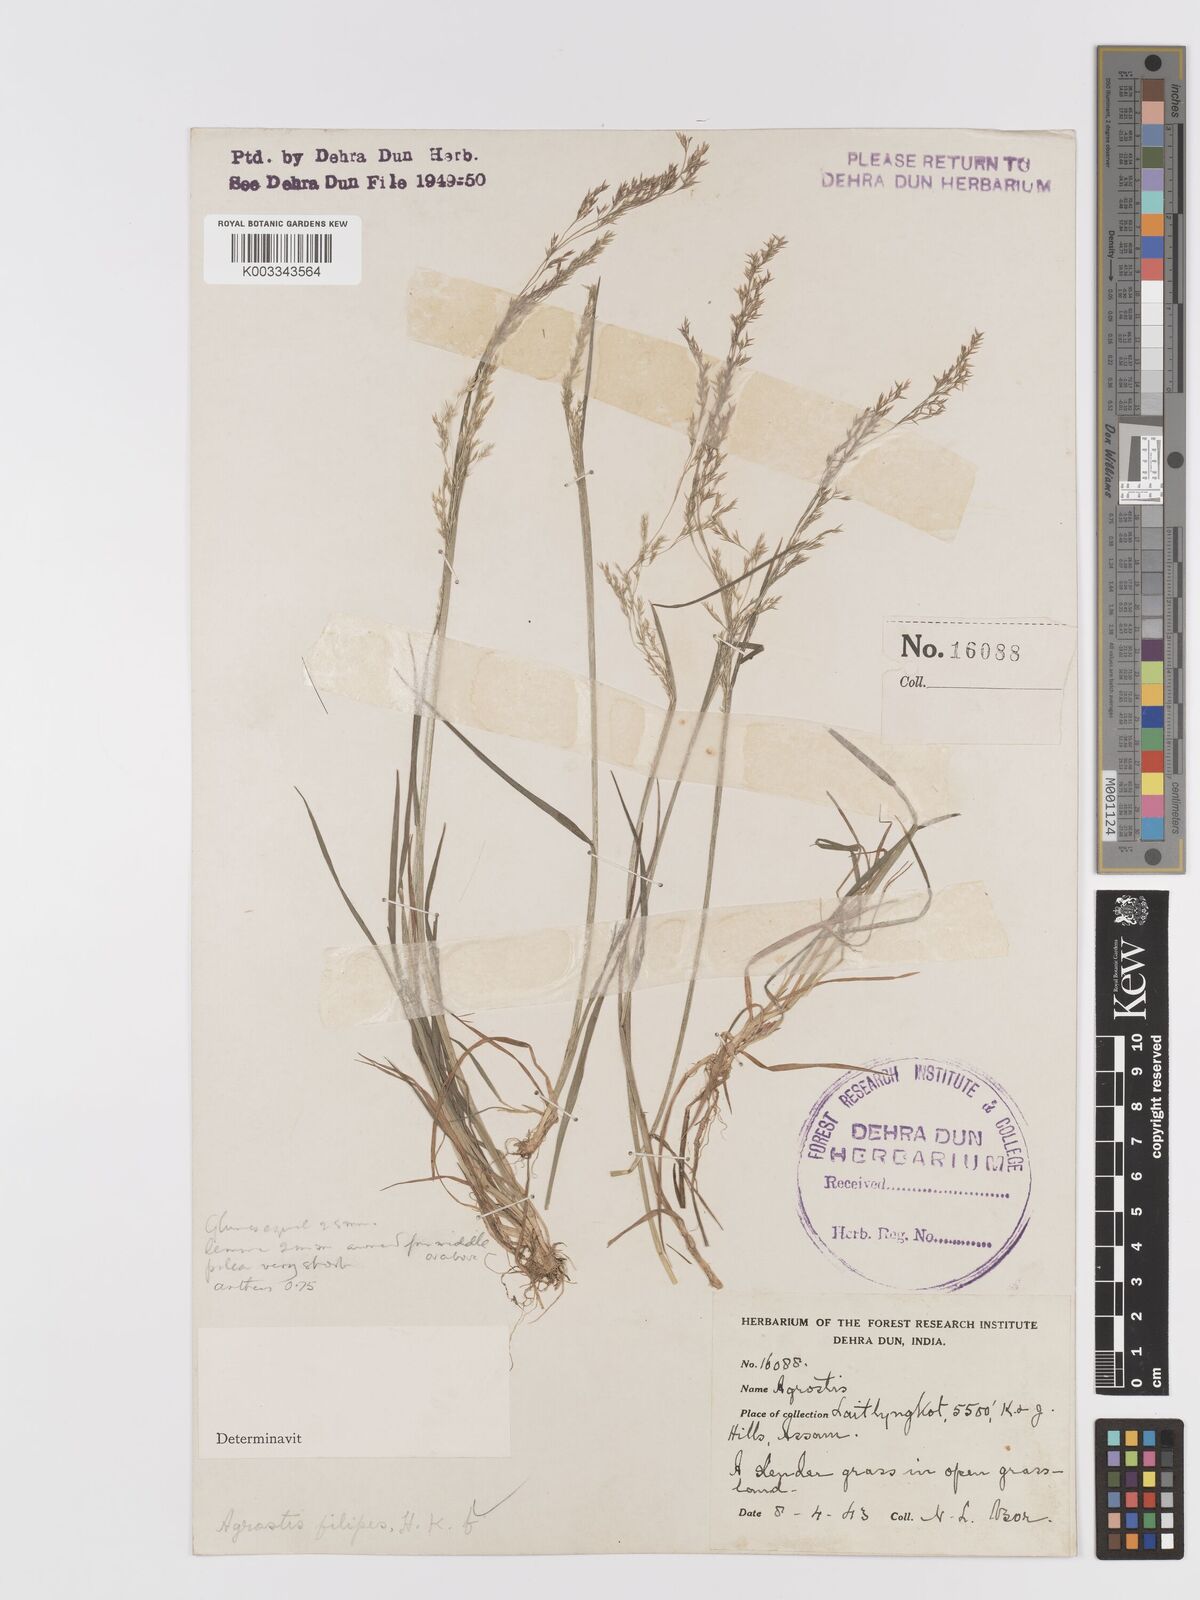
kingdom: Plantae
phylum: Tracheophyta
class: Liliopsida
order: Poales
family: Poaceae
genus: Agrostis
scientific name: Agrostis filipes
